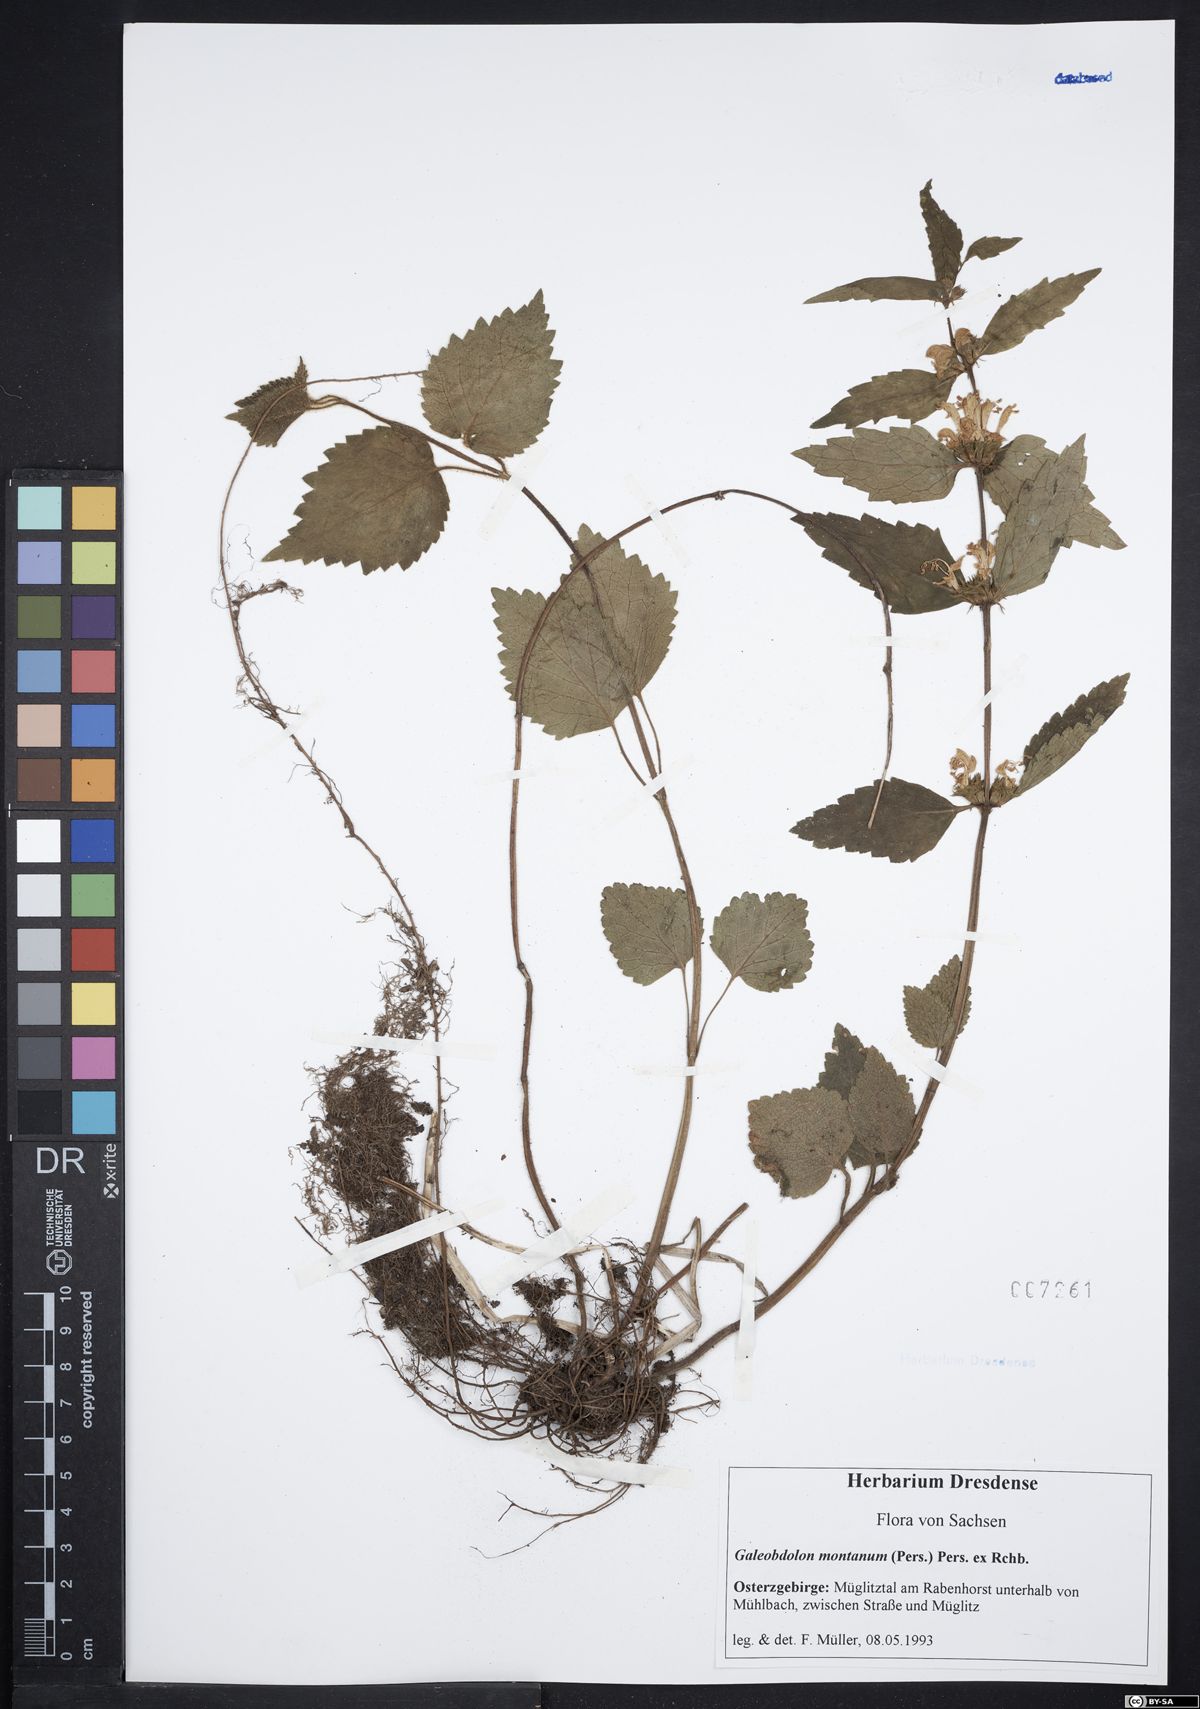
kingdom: Plantae
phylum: Tracheophyta
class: Magnoliopsida
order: Lamiales
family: Lamiaceae
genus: Lamium
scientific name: Lamium galeobdolon
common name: Yellow archangel
